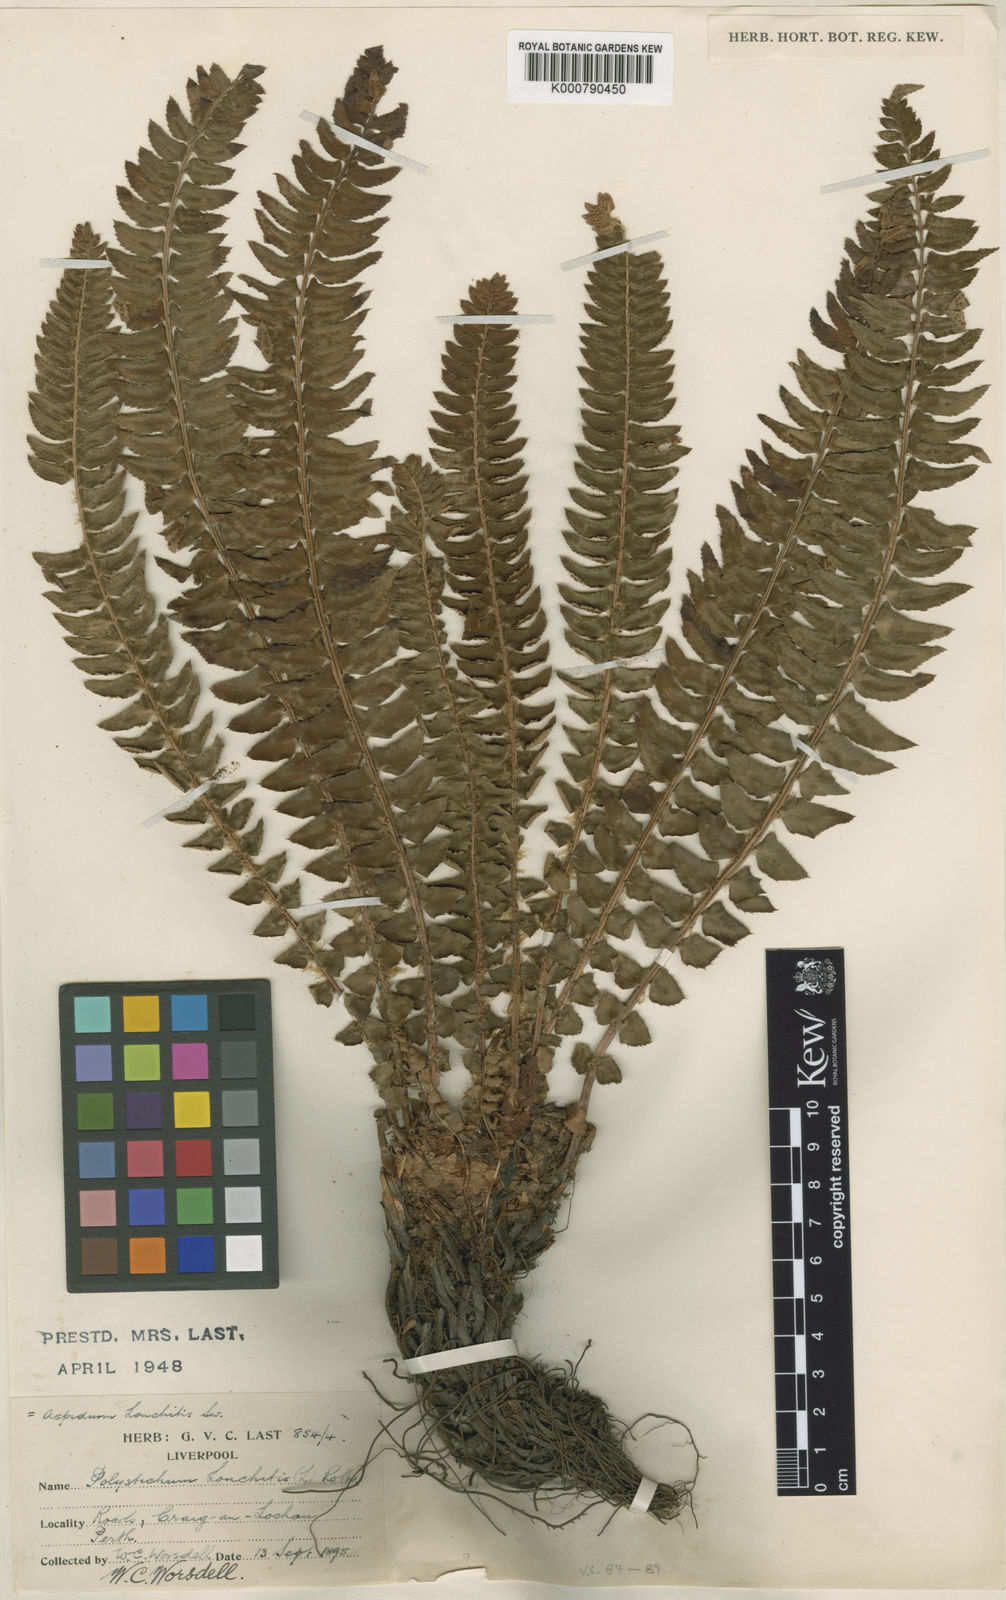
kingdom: Plantae
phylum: Tracheophyta
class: Polypodiopsida
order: Polypodiales
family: Dryopteridaceae
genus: Polystichum
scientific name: Polystichum
